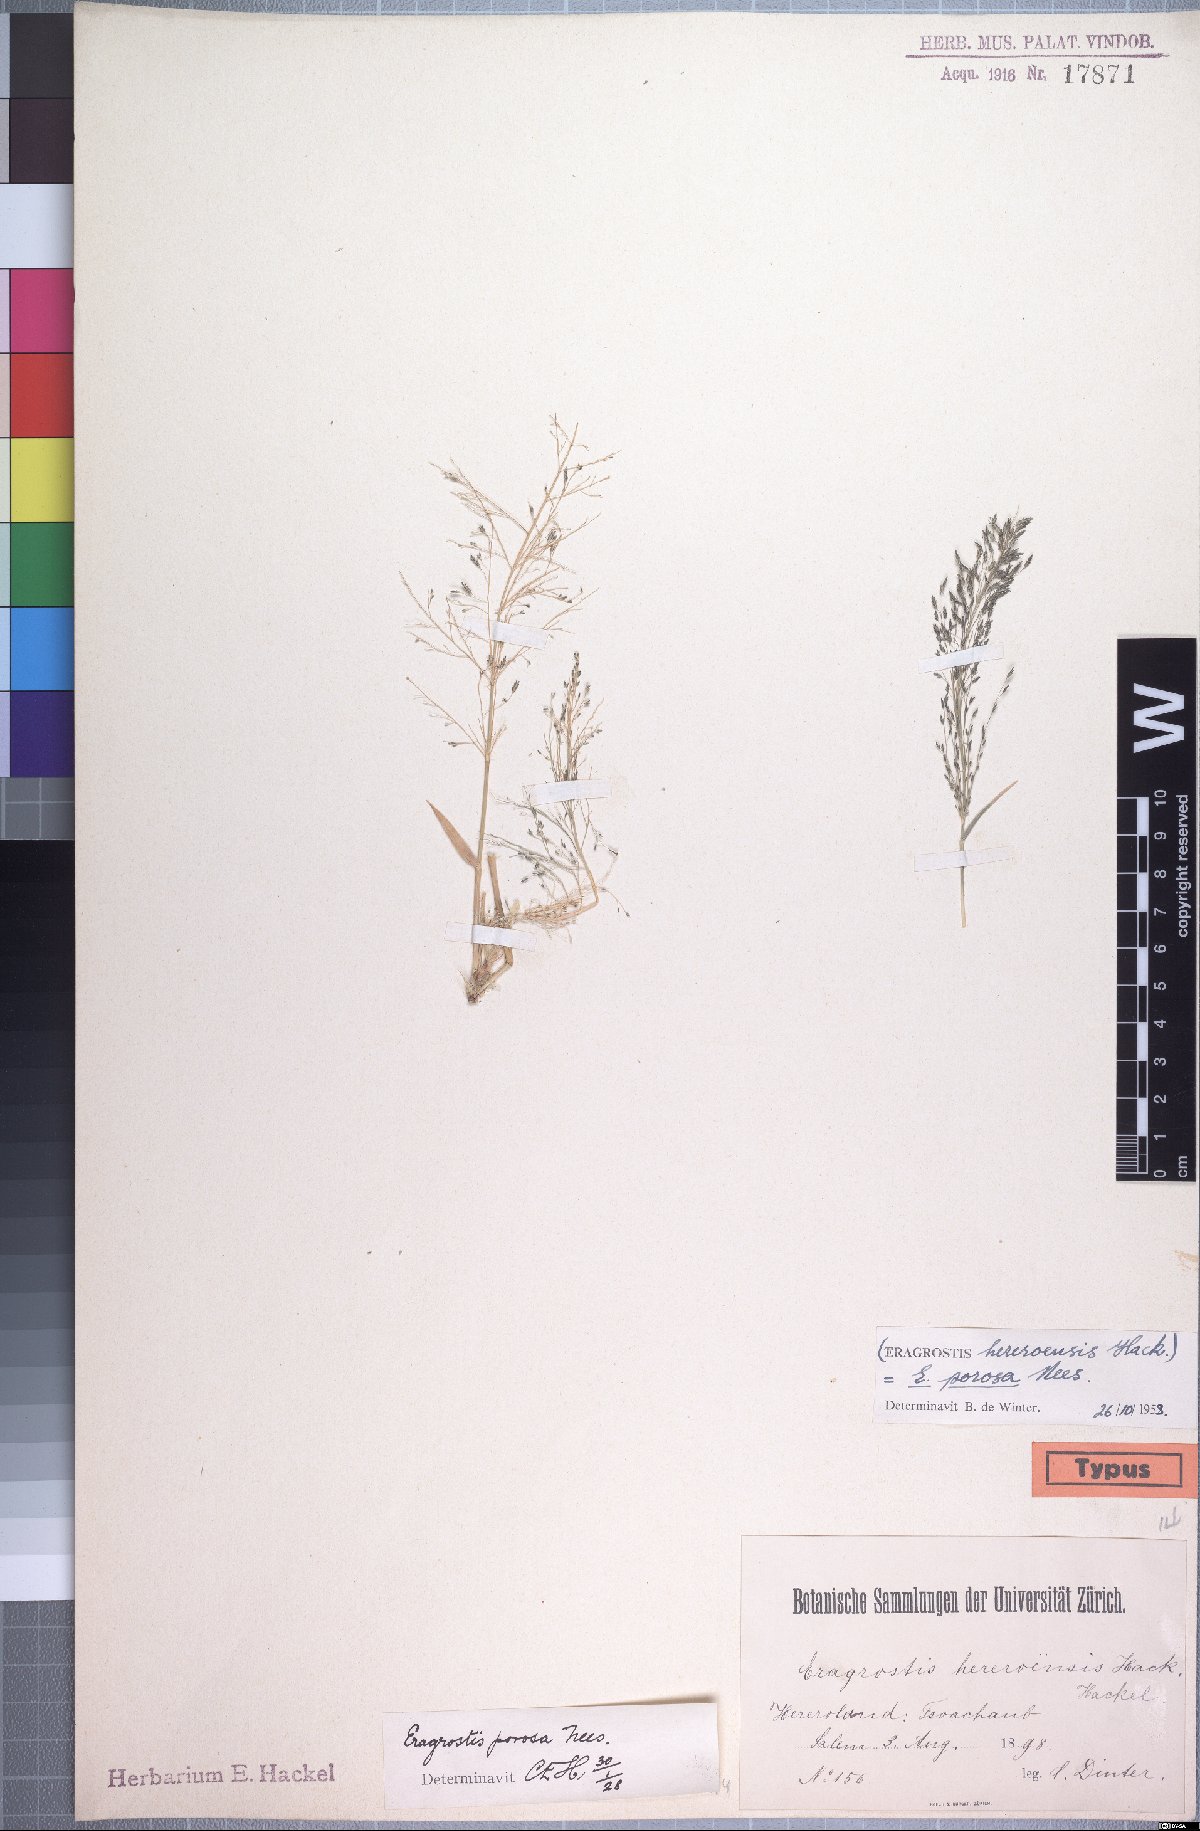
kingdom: Plantae
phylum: Tracheophyta
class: Liliopsida
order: Poales
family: Poaceae
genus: Eragrostis
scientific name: Eragrostis porosa
